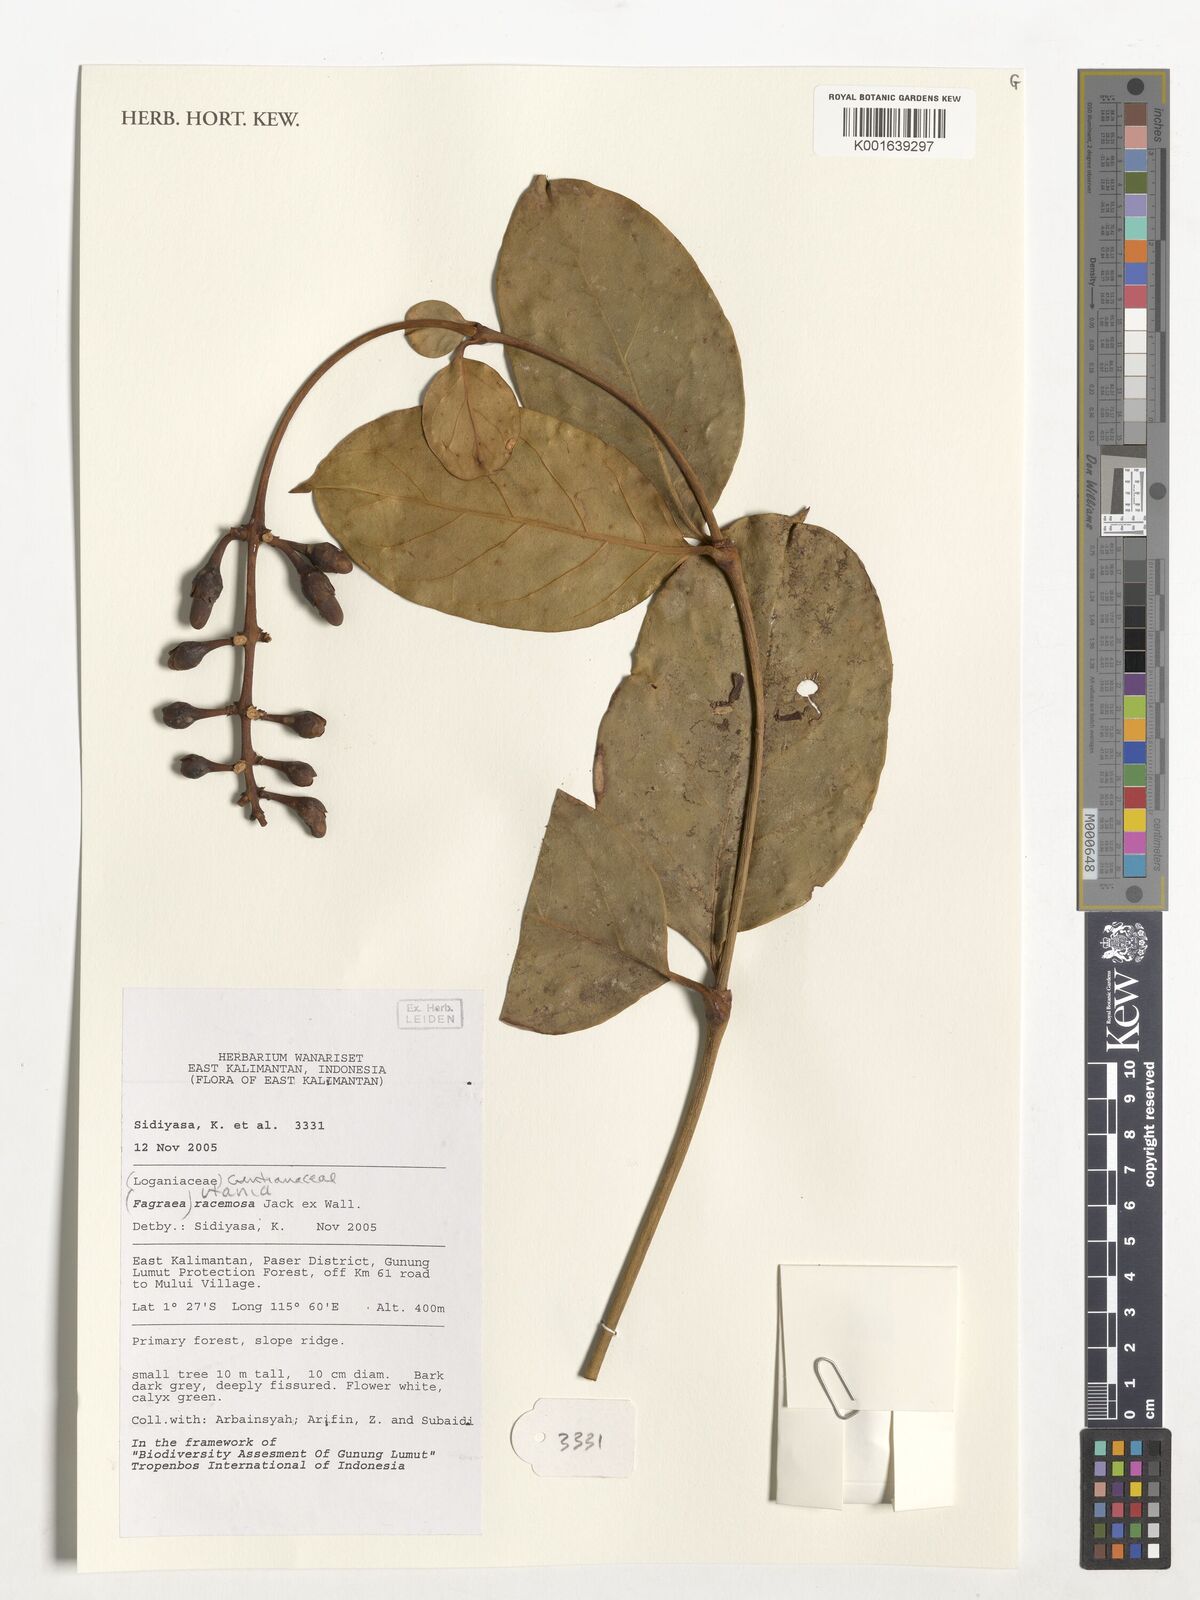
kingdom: Plantae
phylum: Tracheophyta
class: Magnoliopsida
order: Gentianales
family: Gentianaceae
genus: Utania
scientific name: Utania racemosa
